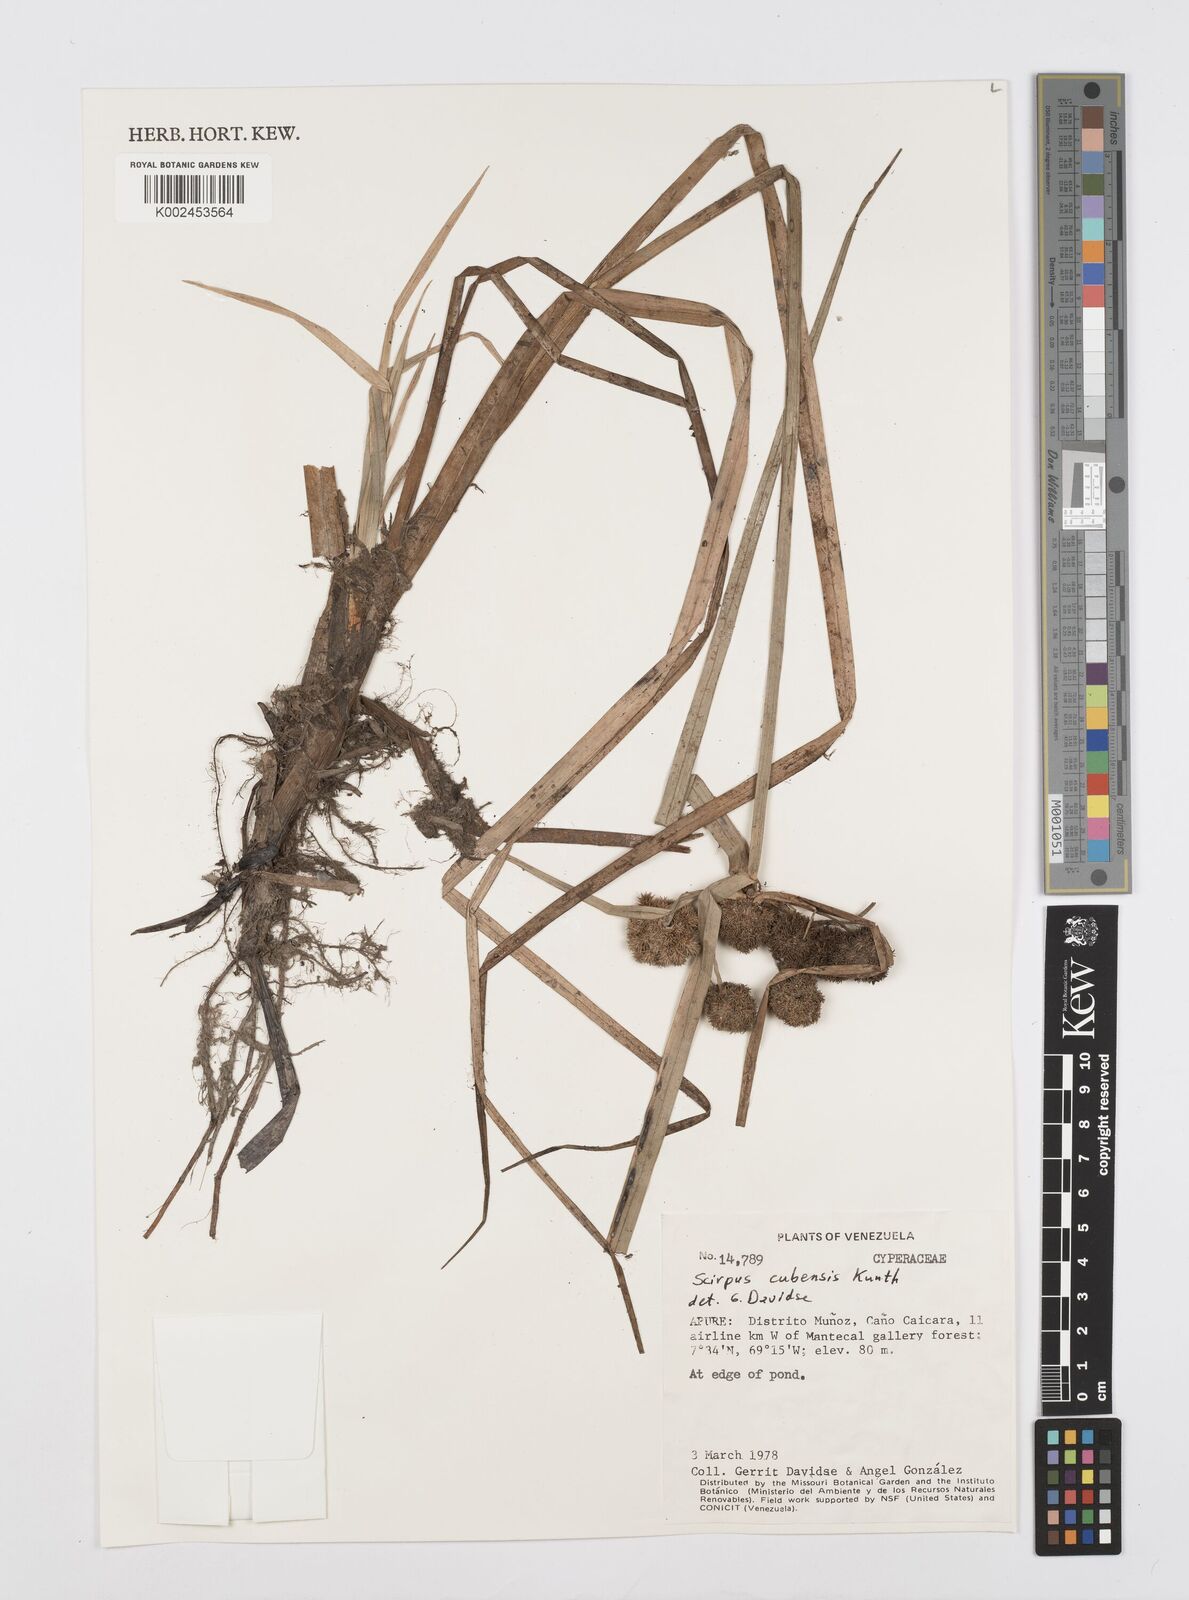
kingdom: Plantae
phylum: Tracheophyta
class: Liliopsida
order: Poales
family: Cyperaceae
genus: Cyperus
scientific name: Cyperus elegans
